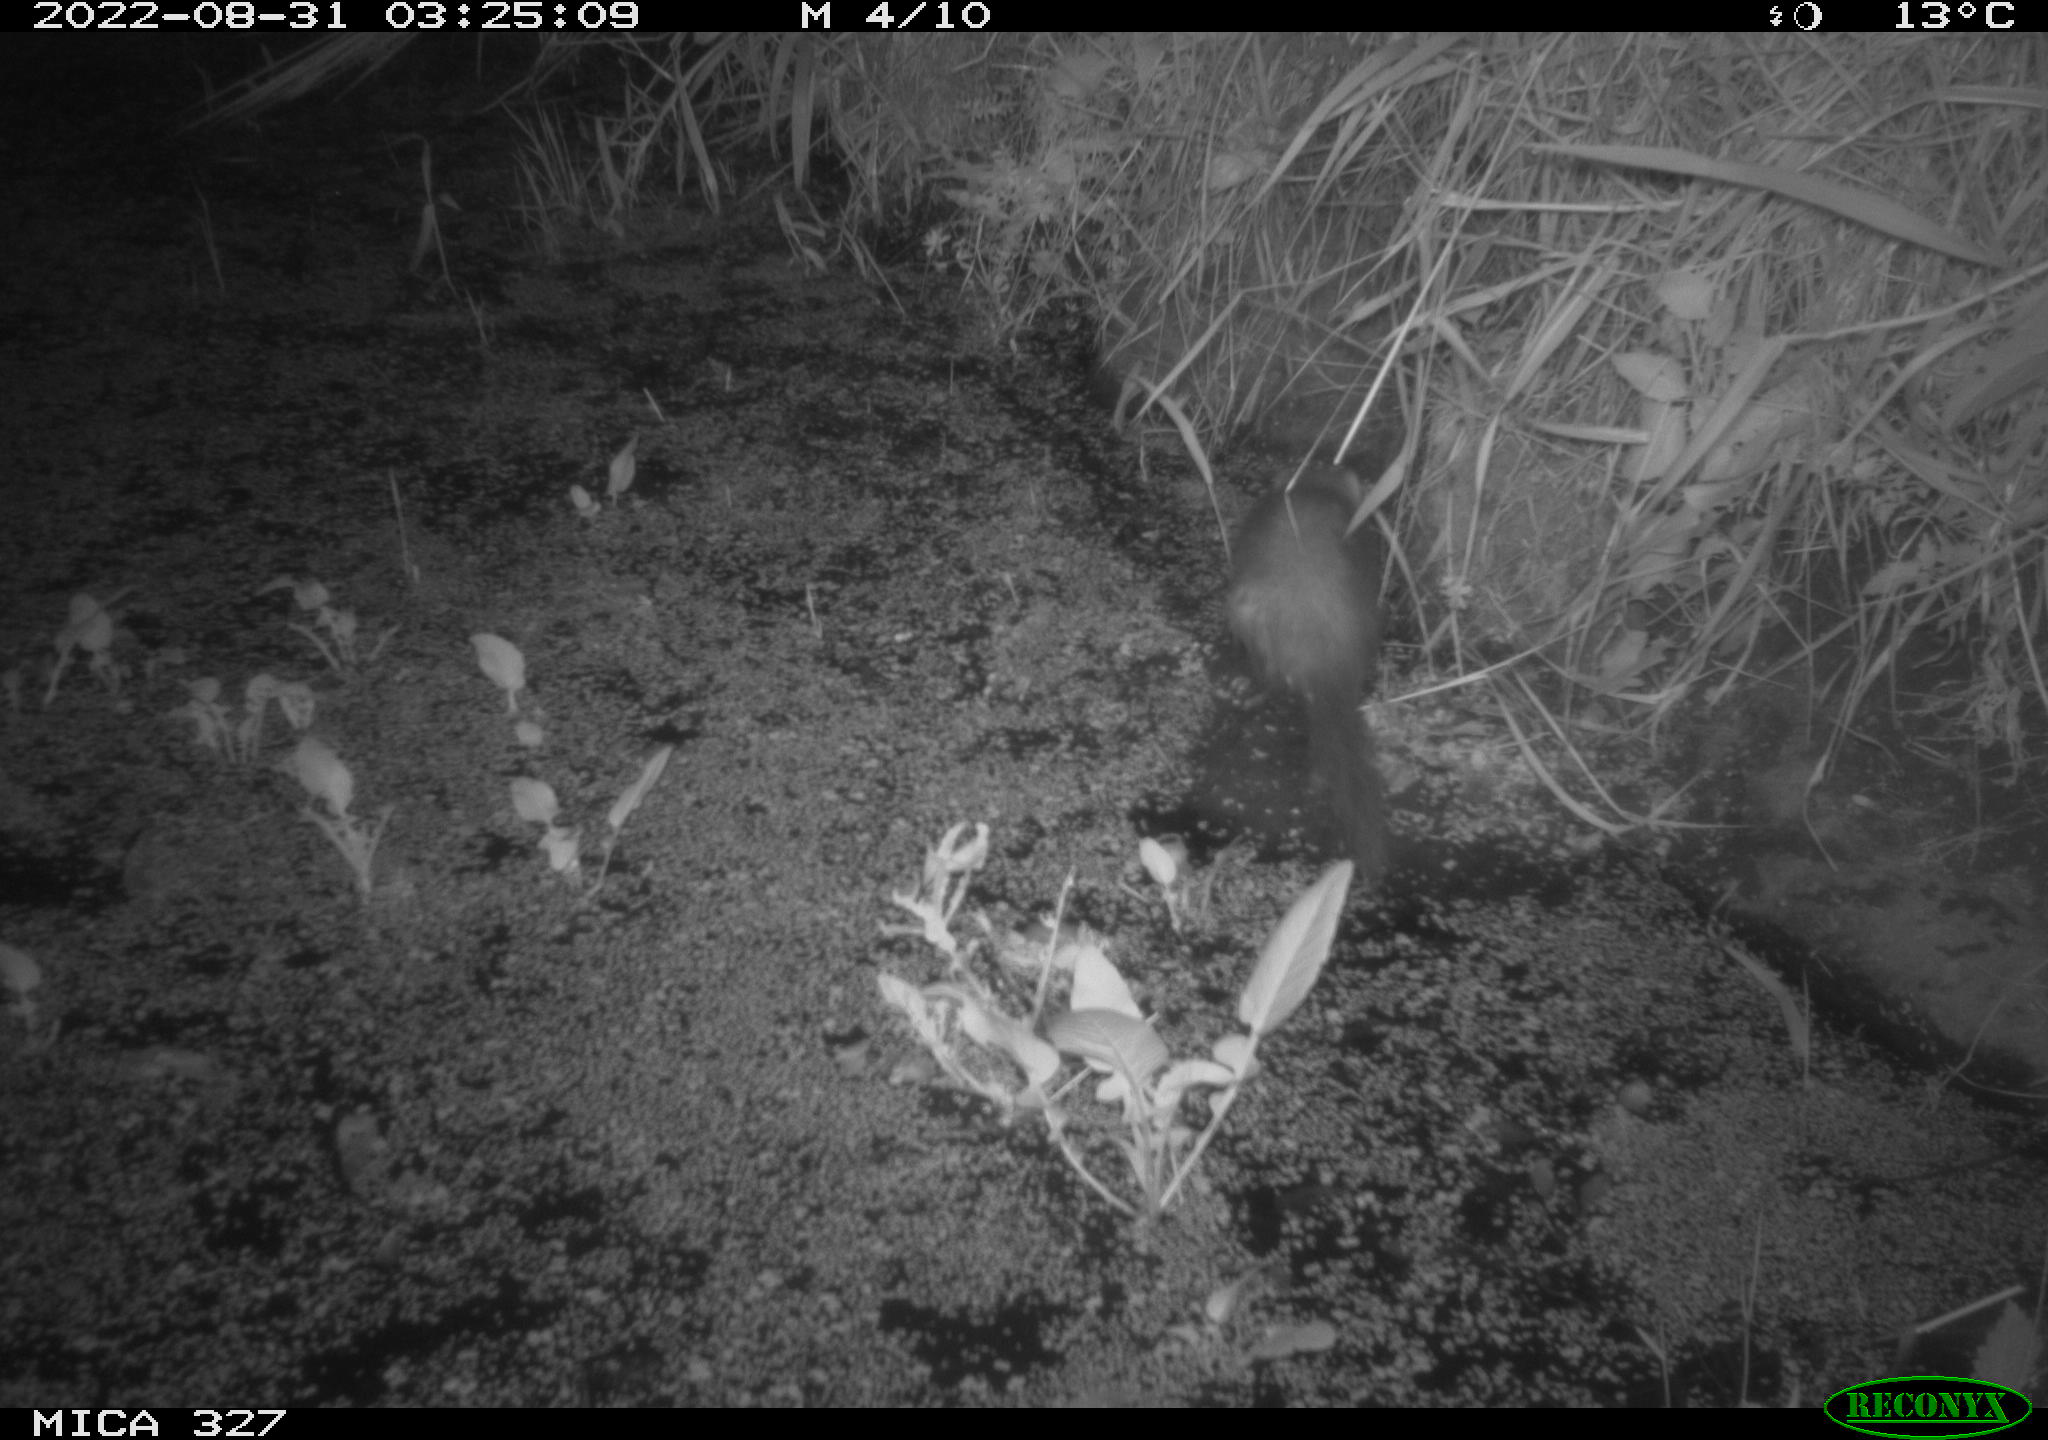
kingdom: Animalia
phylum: Chordata
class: Mammalia
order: Carnivora
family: Mustelidae
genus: Mustela
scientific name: Mustela putorius
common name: European polecat
